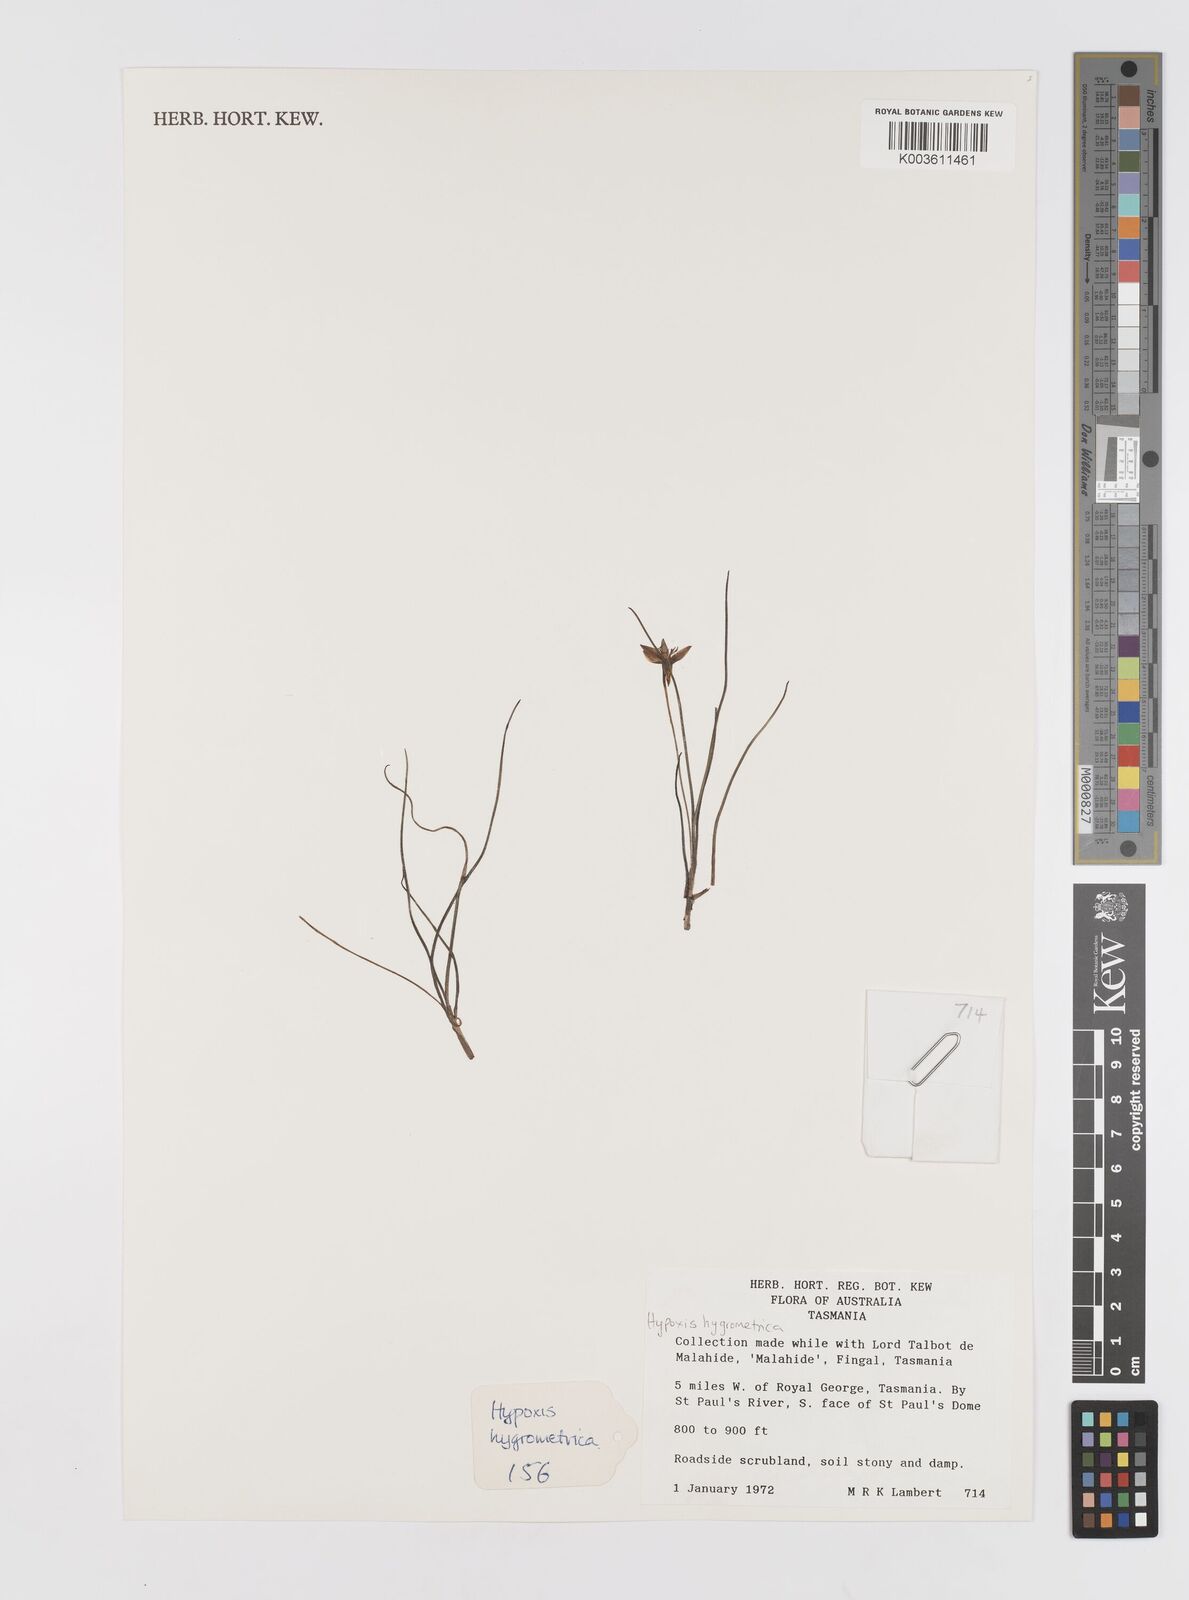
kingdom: Plantae
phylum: Tracheophyta
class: Liliopsida
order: Asparagales
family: Hypoxidaceae
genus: Hypoxis
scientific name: Hypoxis hygrometrica
